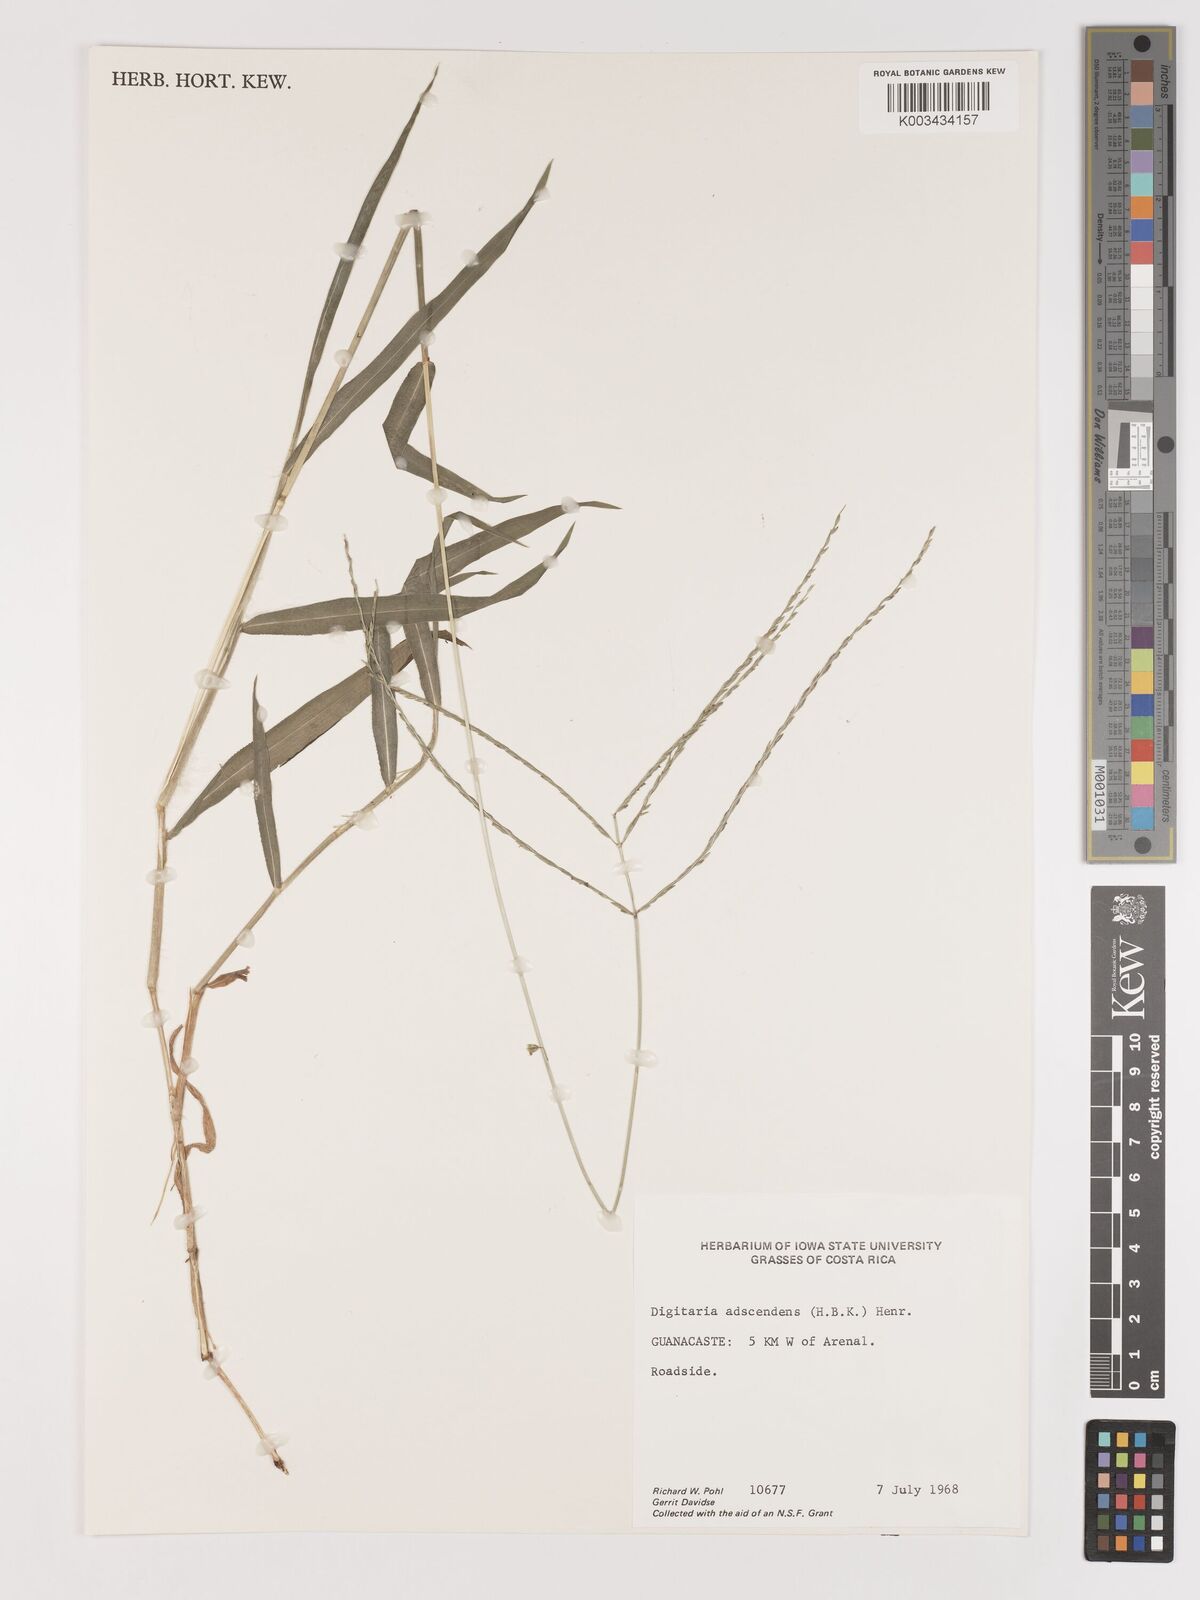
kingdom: Plantae
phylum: Tracheophyta
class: Liliopsida
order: Poales
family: Poaceae
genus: Digitaria
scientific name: Digitaria ciliaris
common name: Tropical finger-grass
